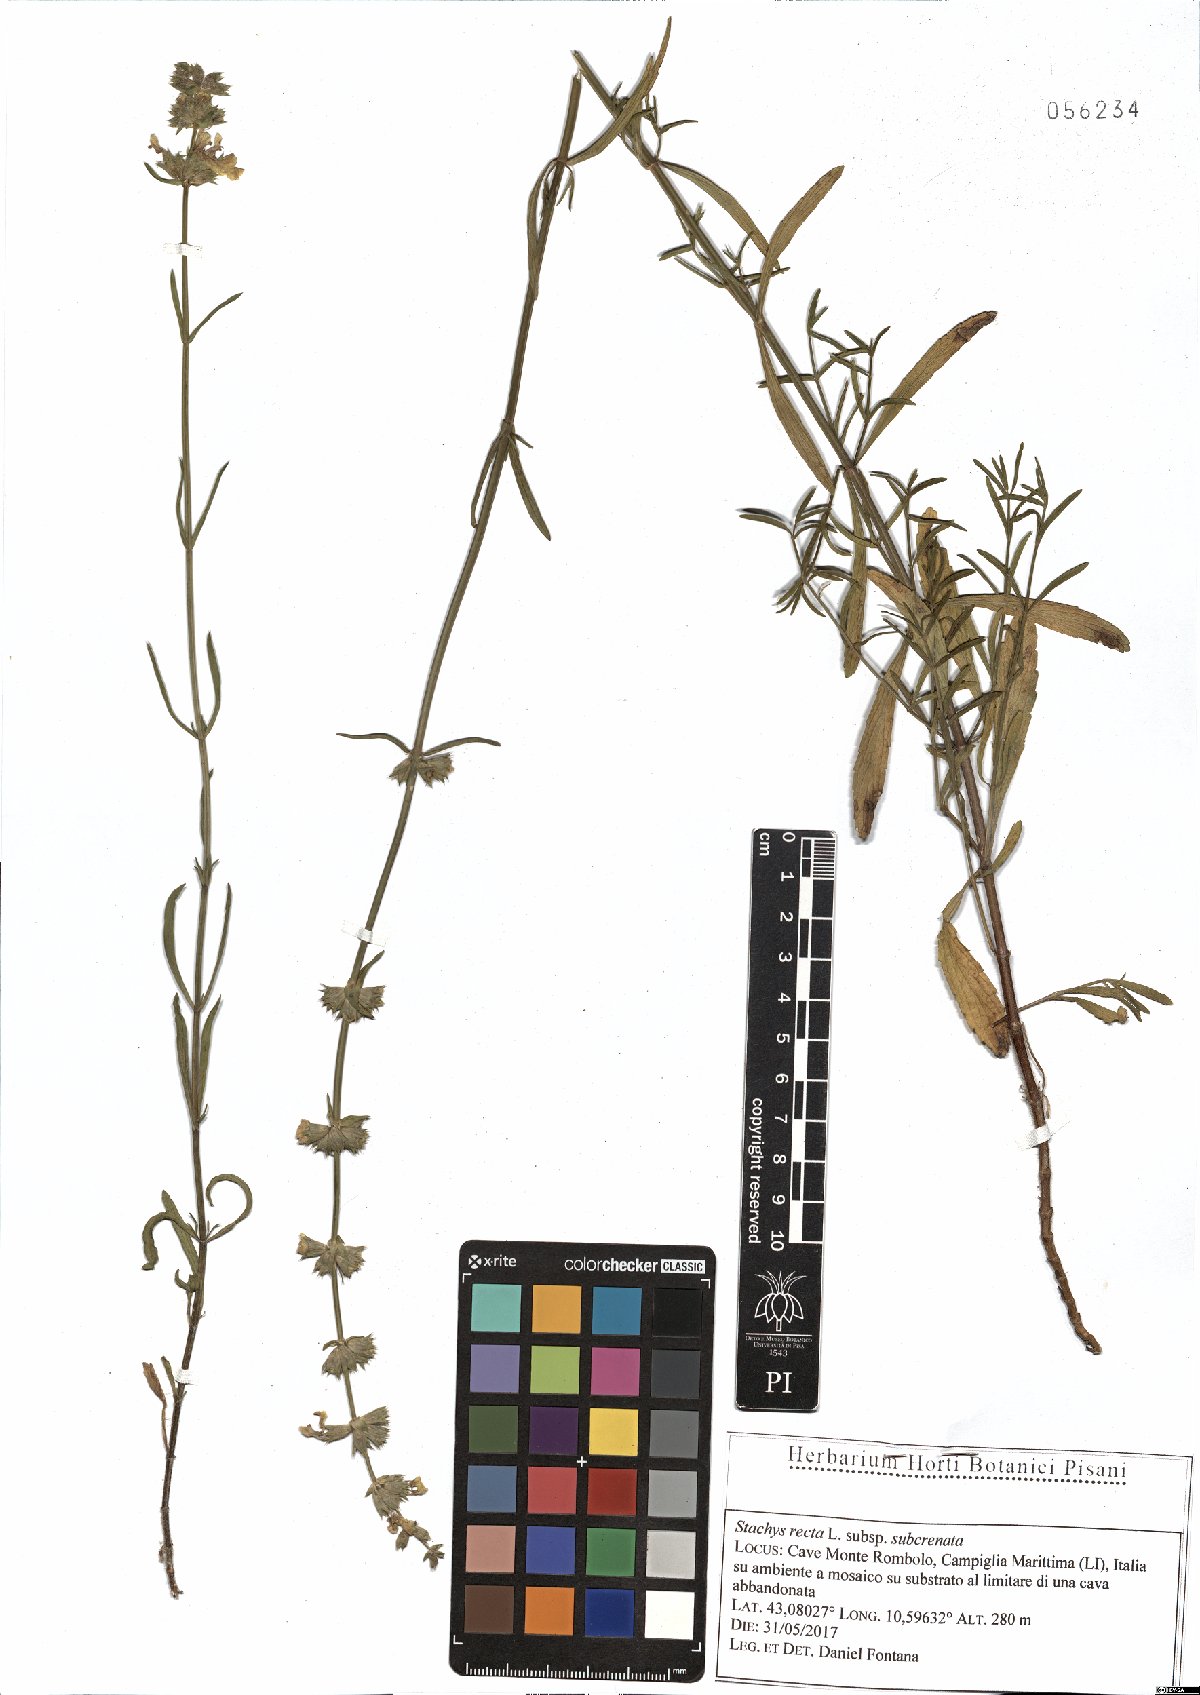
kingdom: Plantae
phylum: Tracheophyta
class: Magnoliopsida
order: Lamiales
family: Lamiaceae
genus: Stachys
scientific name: Stachys recta
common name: Perennial yellow-woundwort
